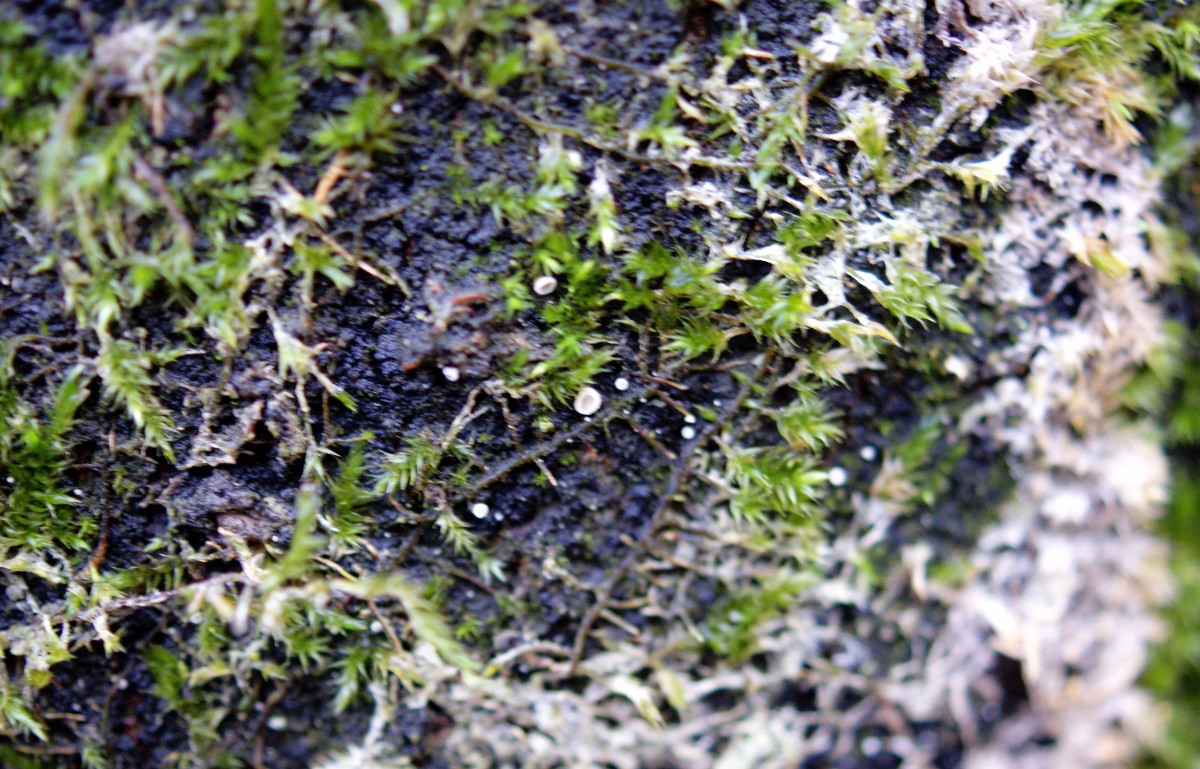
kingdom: Fungi
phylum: Basidiomycota
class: Agaricomycetes
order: Agaricales
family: Chromocyphellaceae
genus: Chromocyphella
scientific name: Chromocyphella muscicola
